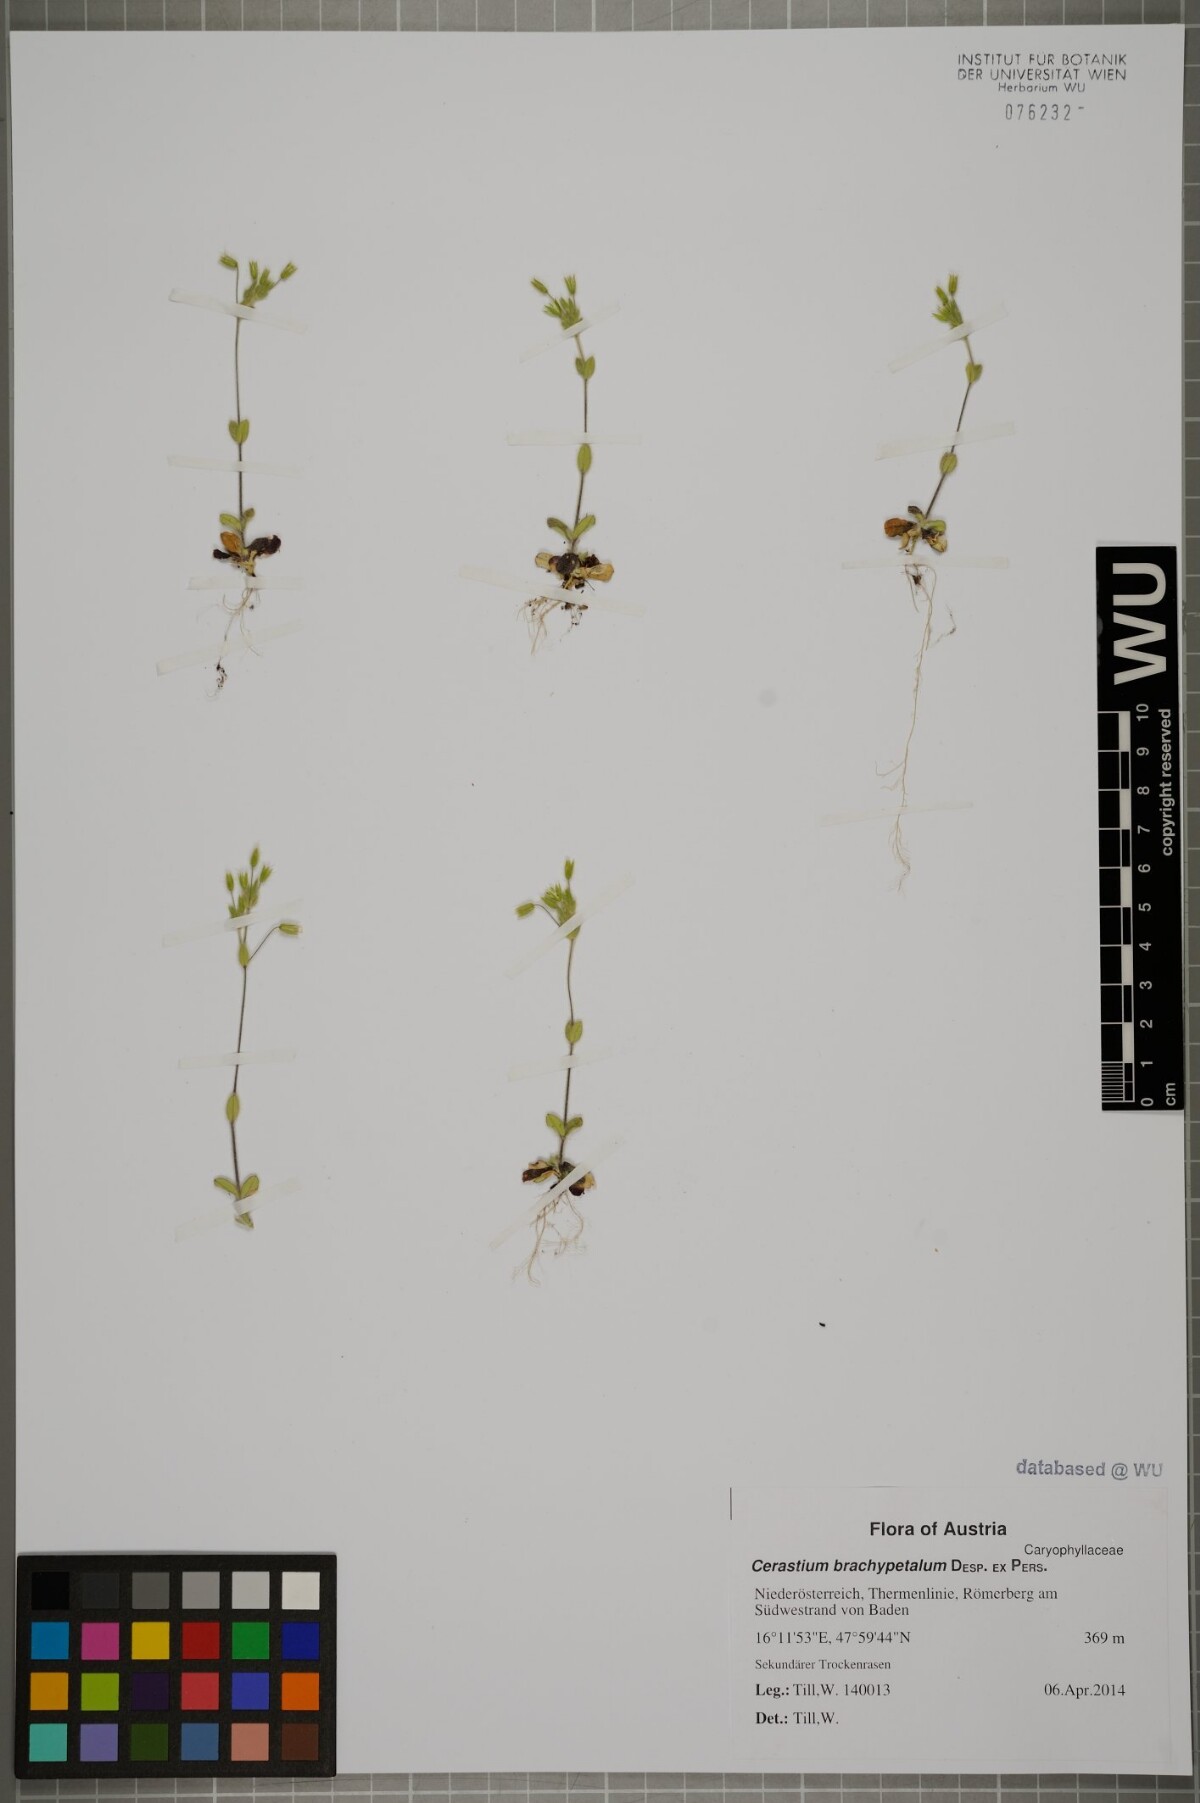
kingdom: Plantae
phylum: Tracheophyta
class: Magnoliopsida
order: Caryophyllales
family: Caryophyllaceae
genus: Cerastium
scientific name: Cerastium brachypetalum
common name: Grey mouse-ear
